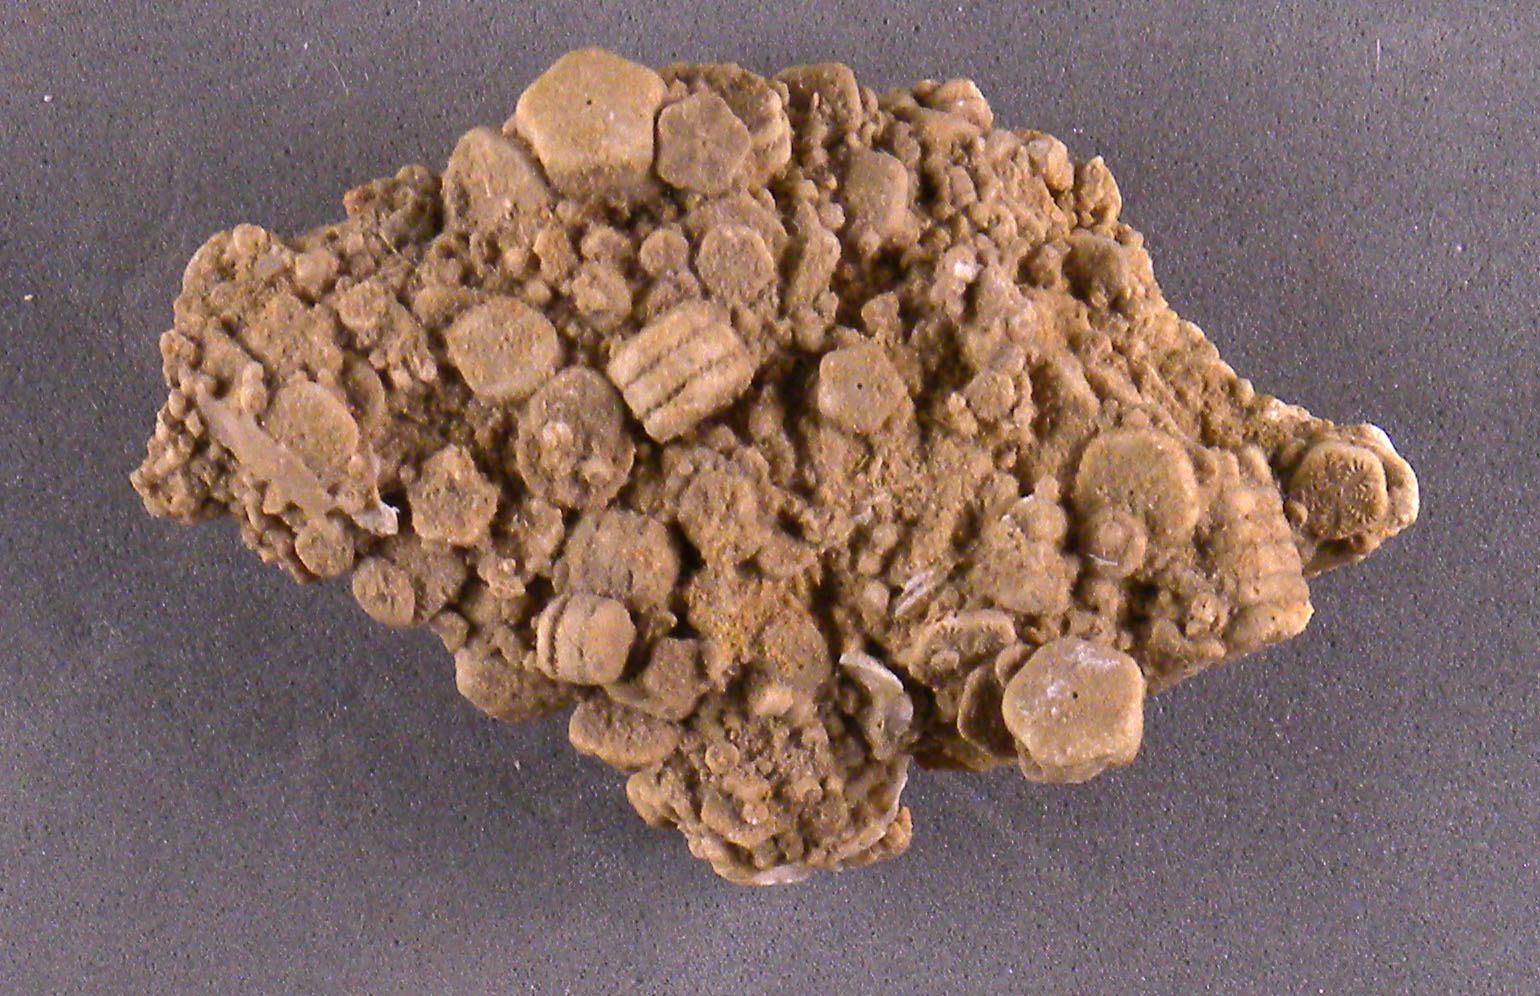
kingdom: Animalia
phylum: Echinodermata
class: Crinoidea
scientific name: Crinoidea
